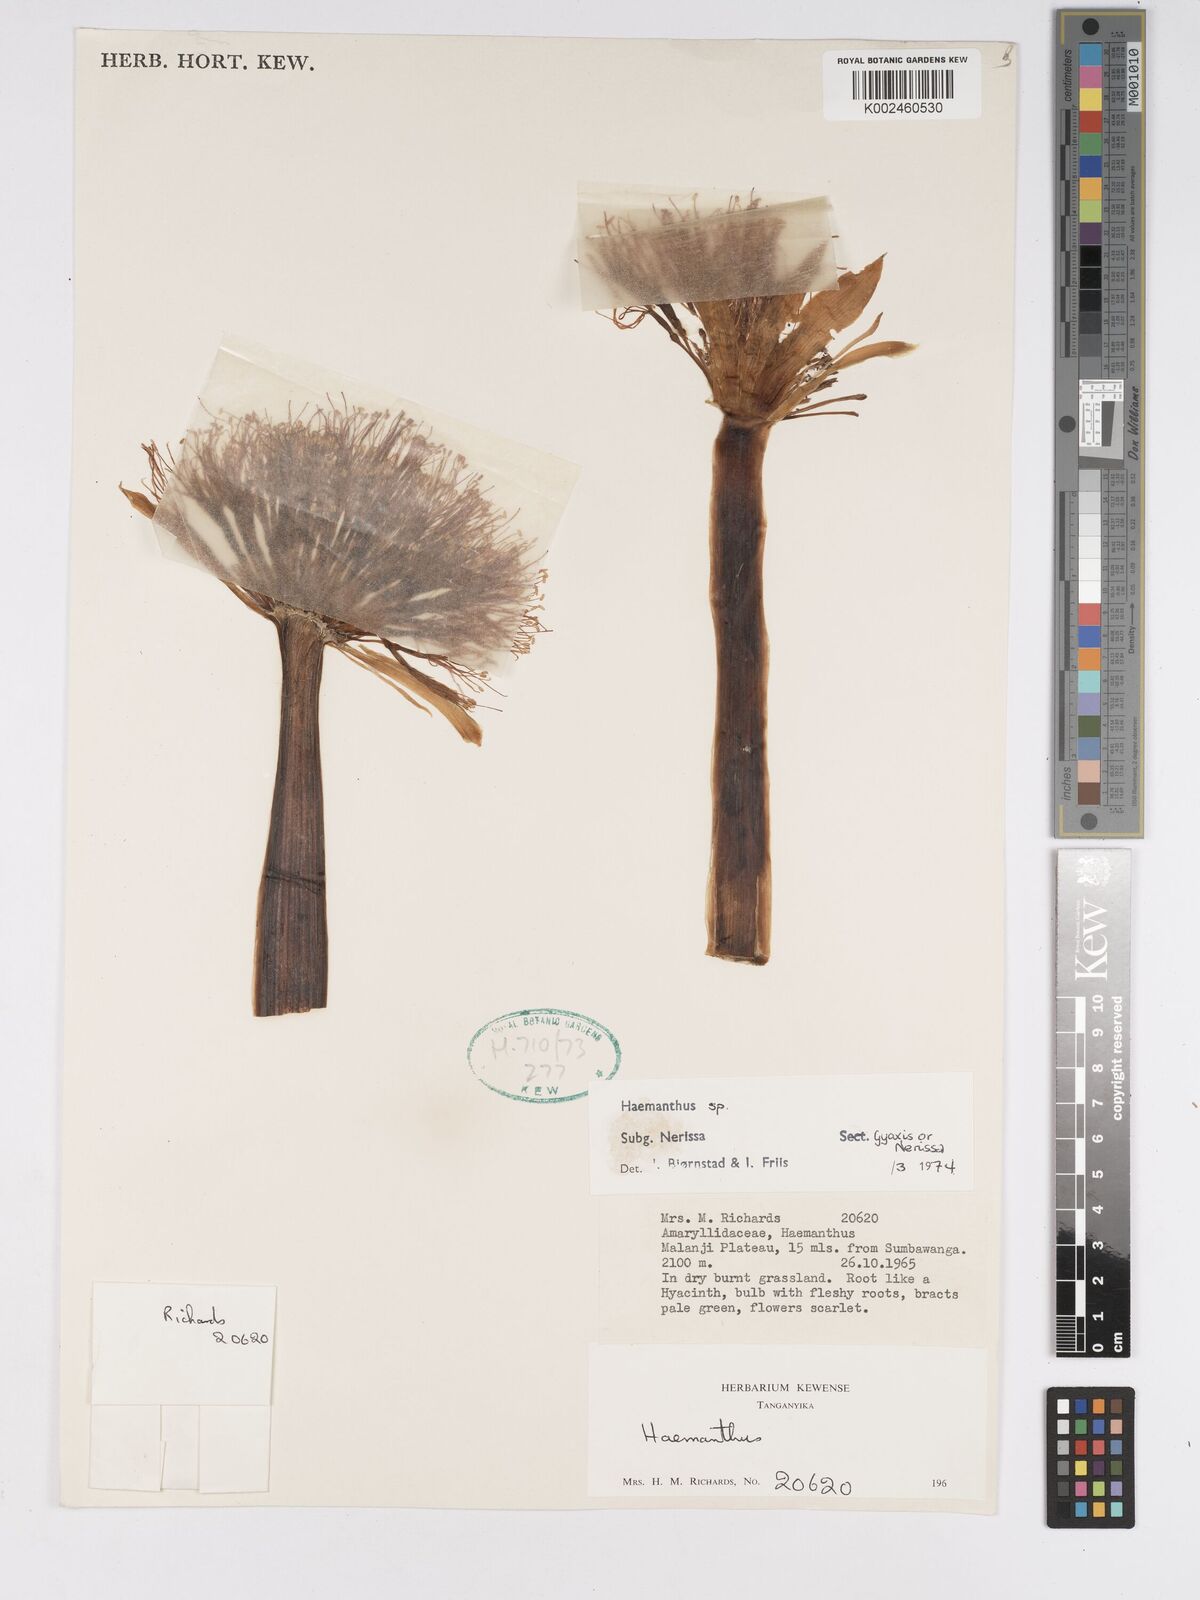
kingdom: Plantae
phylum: Tracheophyta
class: Liliopsida
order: Asparagales
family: Amaryllidaceae
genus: Scadoxus
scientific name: Scadoxus
